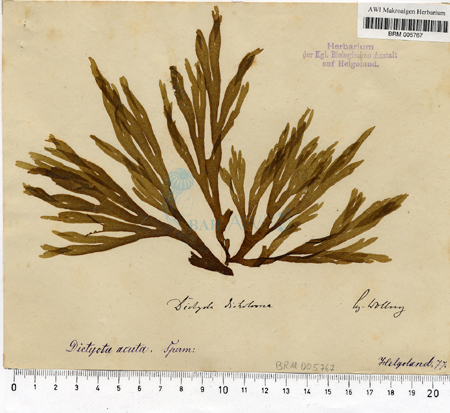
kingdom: Chromista
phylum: Ochrophyta
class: Phaeophyceae
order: Dictyotales
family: Dictyotaceae
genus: Dictyota
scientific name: Dictyota dichotoma
